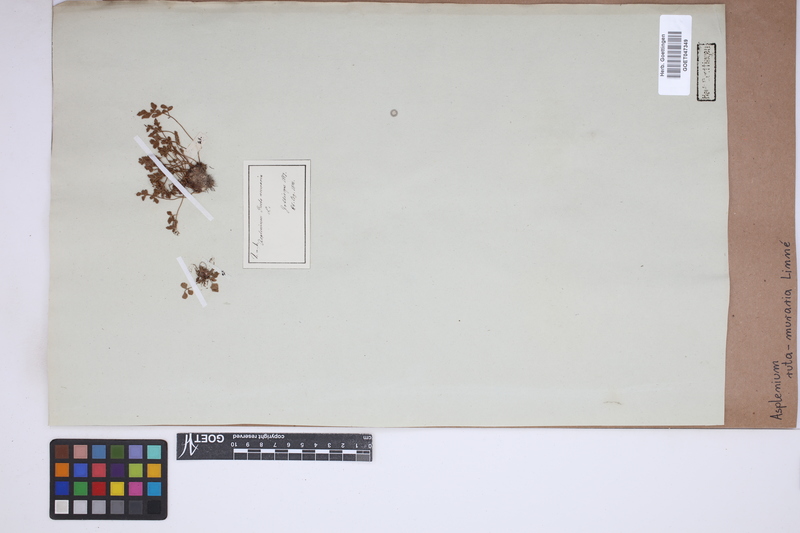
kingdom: Plantae
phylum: Tracheophyta
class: Polypodiopsida
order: Polypodiales
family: Aspleniaceae
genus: Asplenium
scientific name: Asplenium ruta-muraria
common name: Wall-rue
